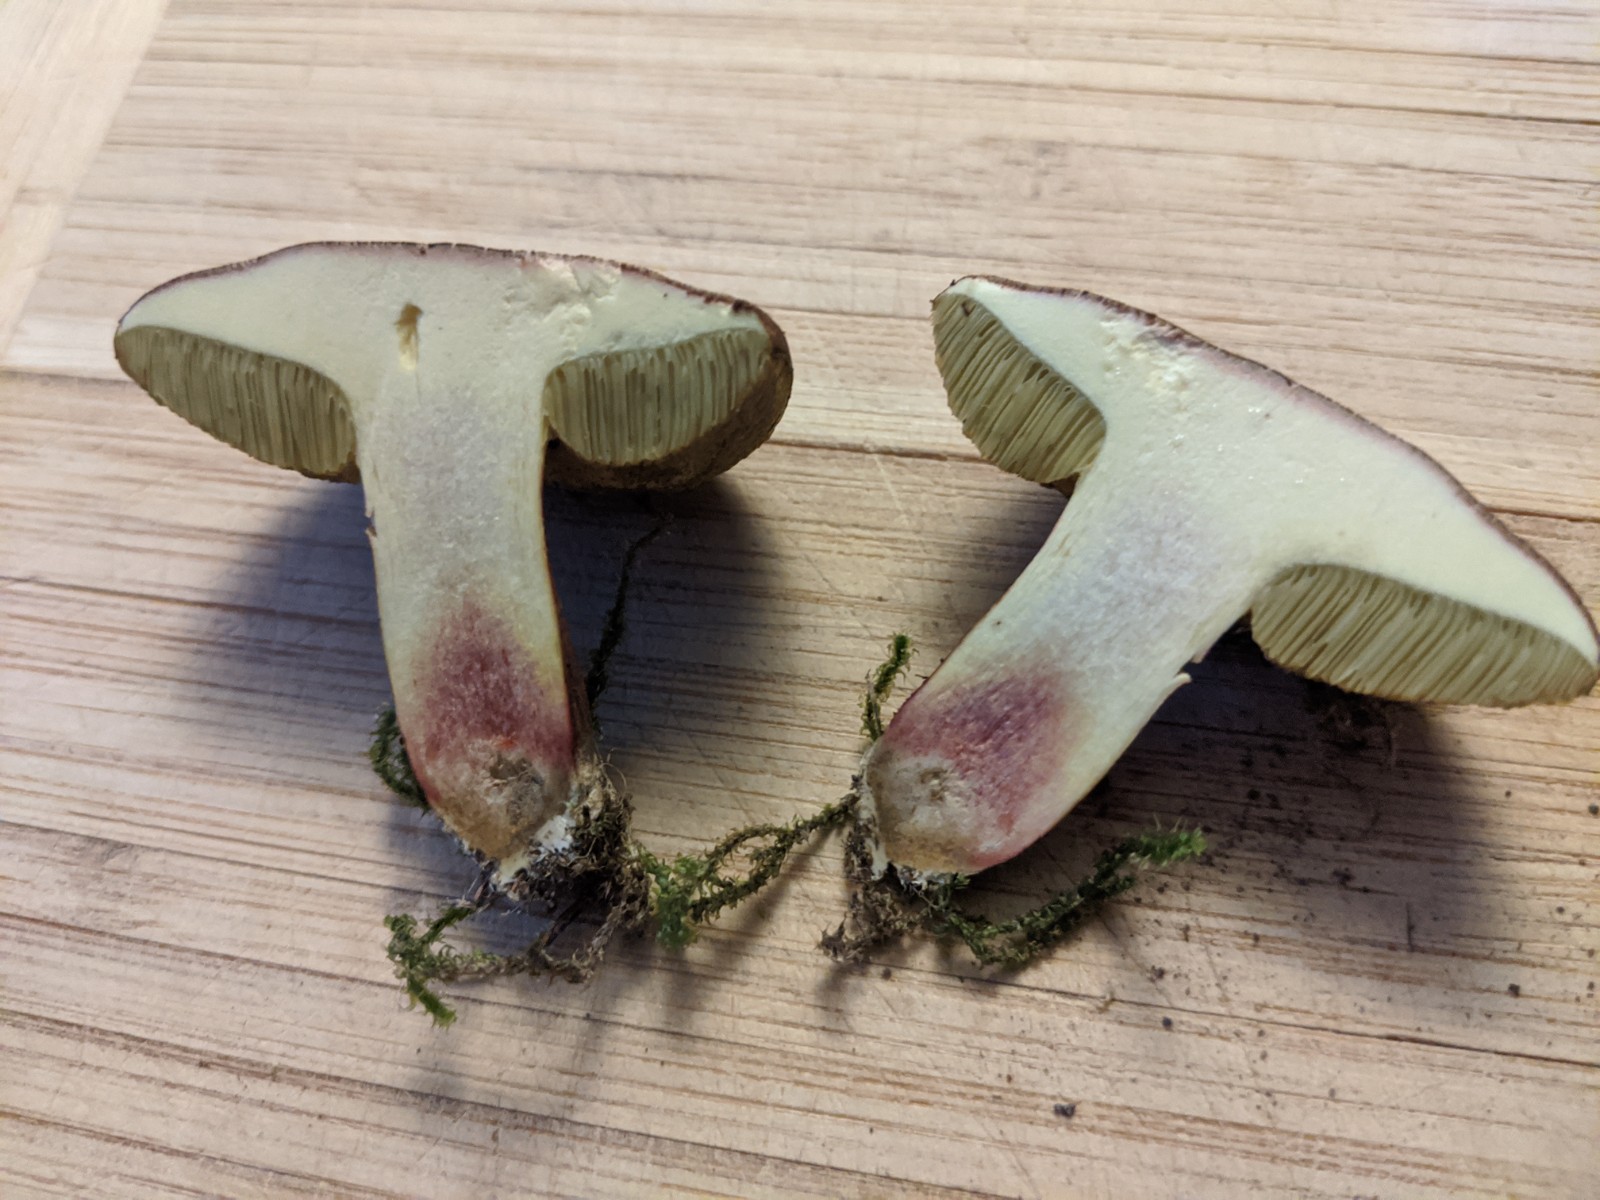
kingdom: Fungi
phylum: Basidiomycota
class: Agaricomycetes
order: Boletales
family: Boletaceae
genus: Xerocomellus
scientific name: Xerocomellus
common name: dværgrørhat
